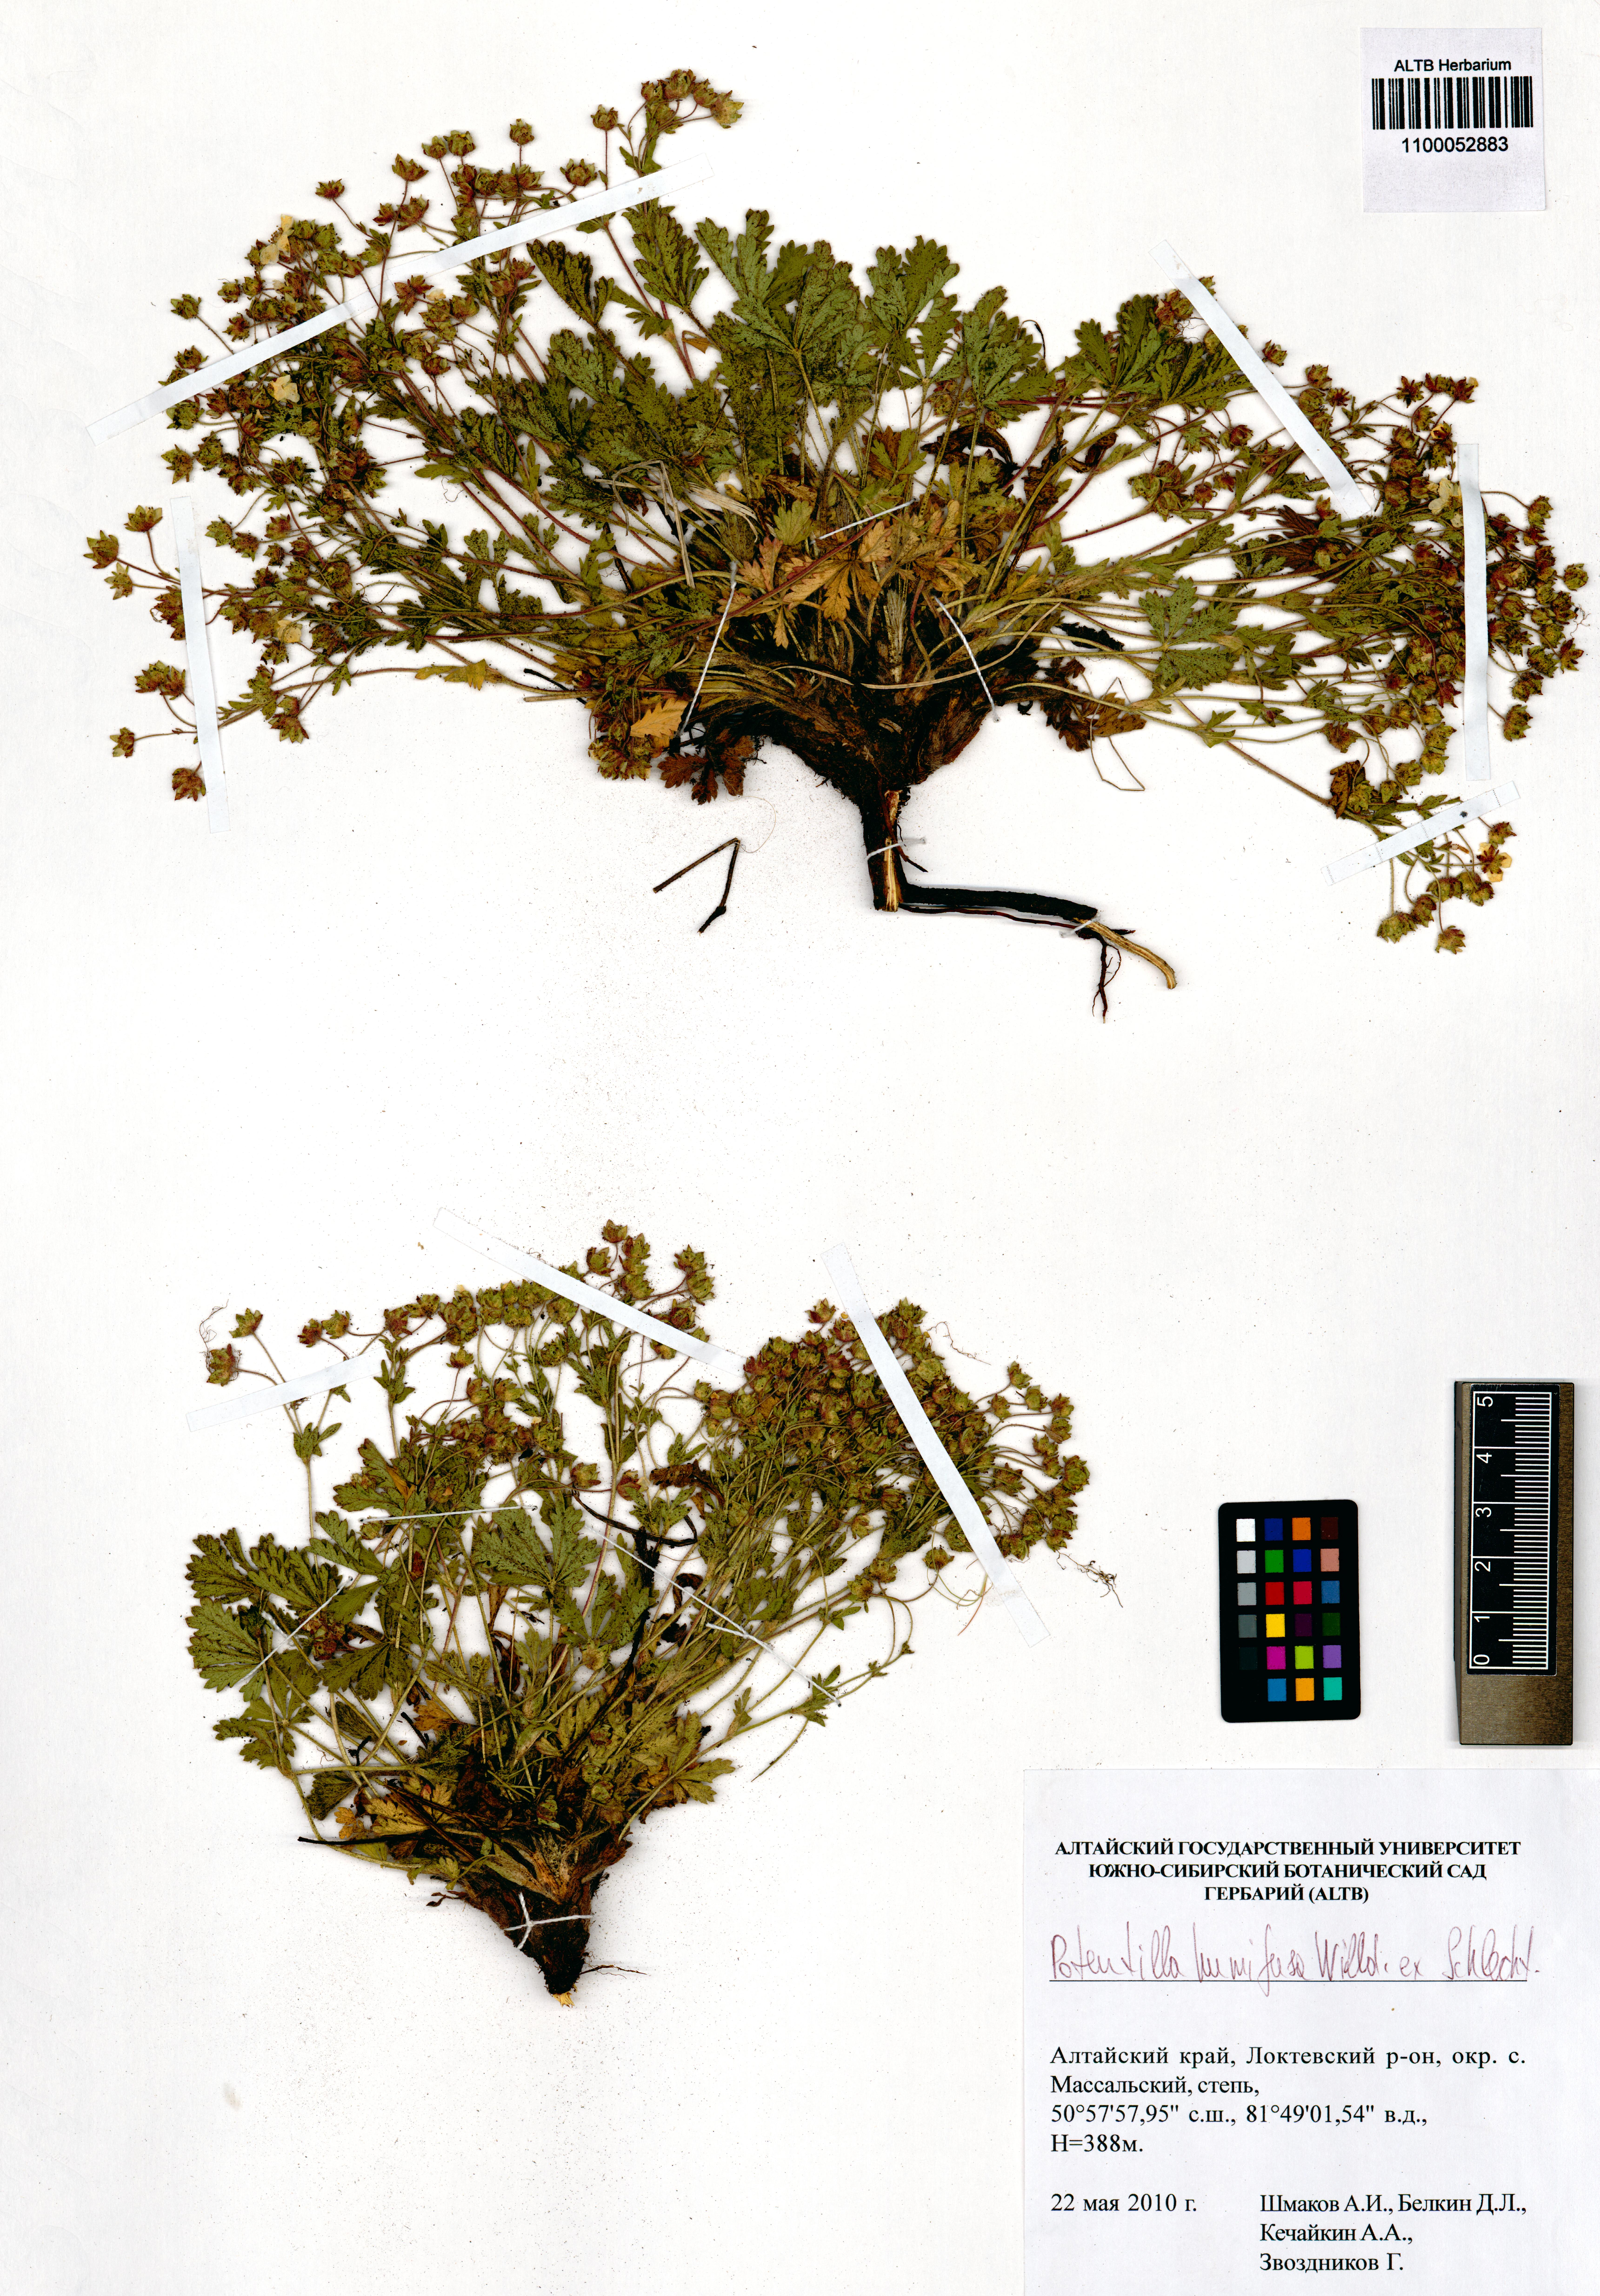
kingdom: Plantae
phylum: Tracheophyta
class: Magnoliopsida
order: Rosales
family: Rosaceae
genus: Potentilla
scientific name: Potentilla humifusa
